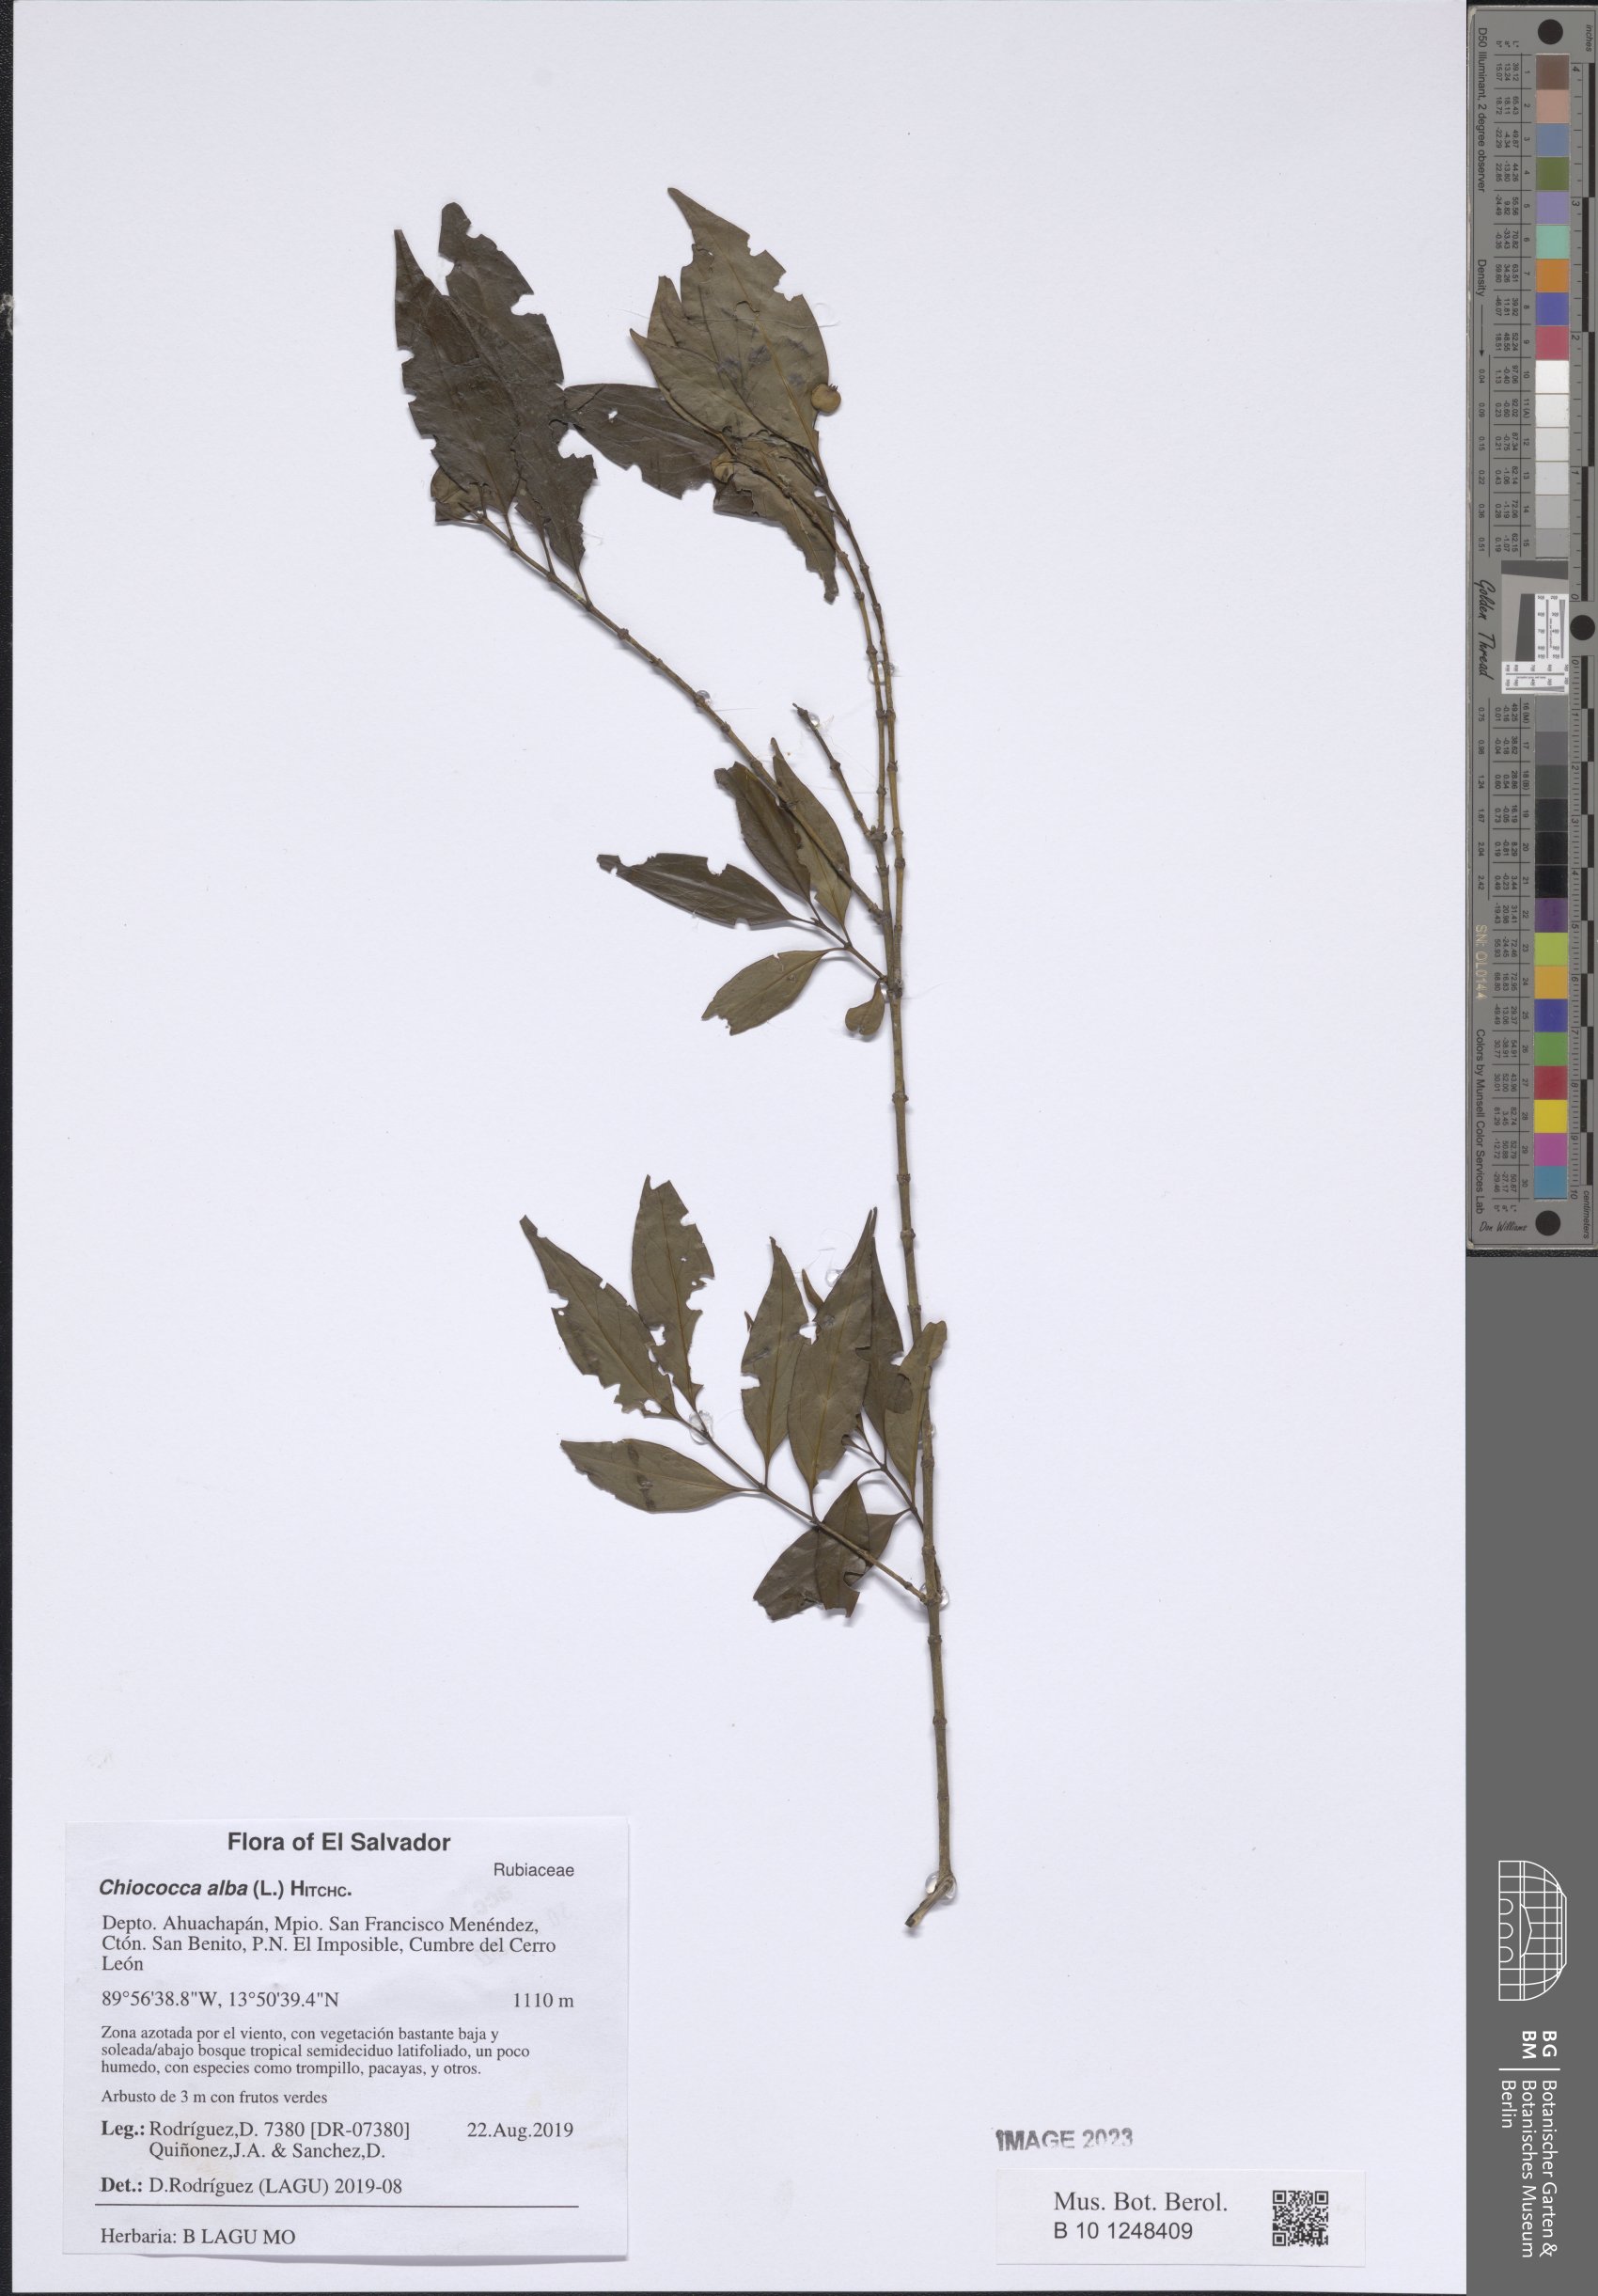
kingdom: Plantae
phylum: Tracheophyta
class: Magnoliopsida
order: Gentianales
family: Rubiaceae
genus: Chiococca
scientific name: Chiococca alba
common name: Snowberry
